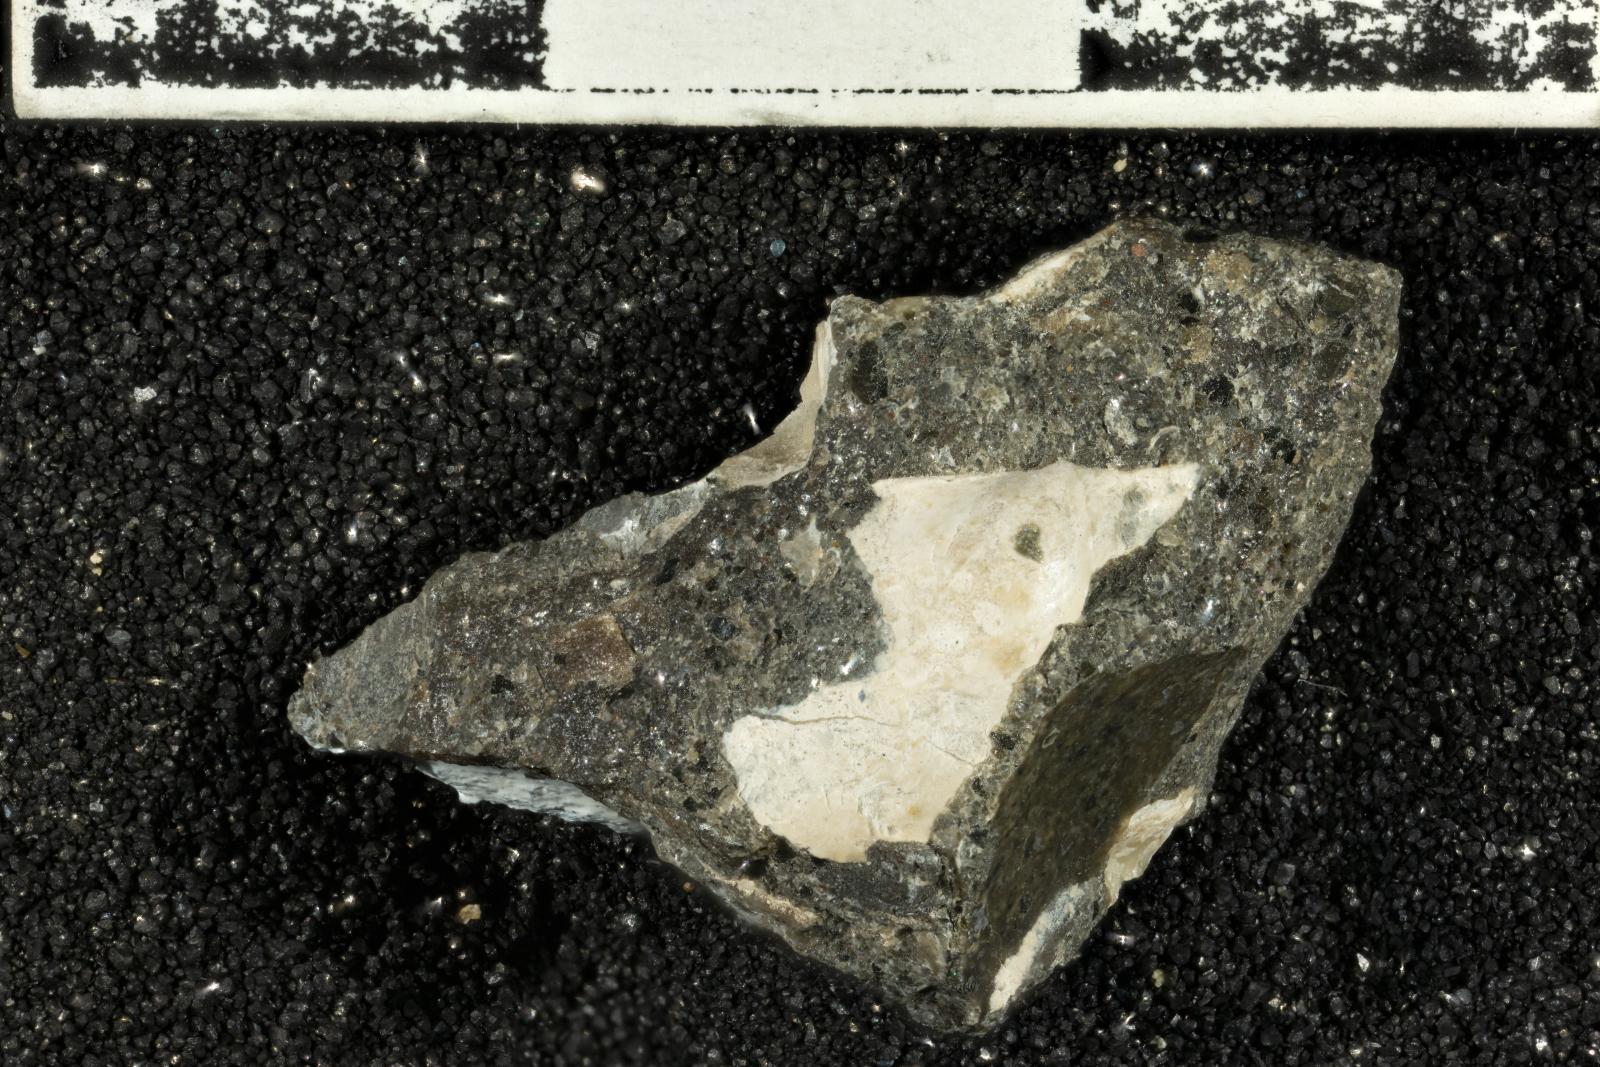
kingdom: Animalia
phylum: Mollusca
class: Bivalvia
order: Ostreida
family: Pteriidae
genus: Pteria
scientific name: Pteria pellucida
